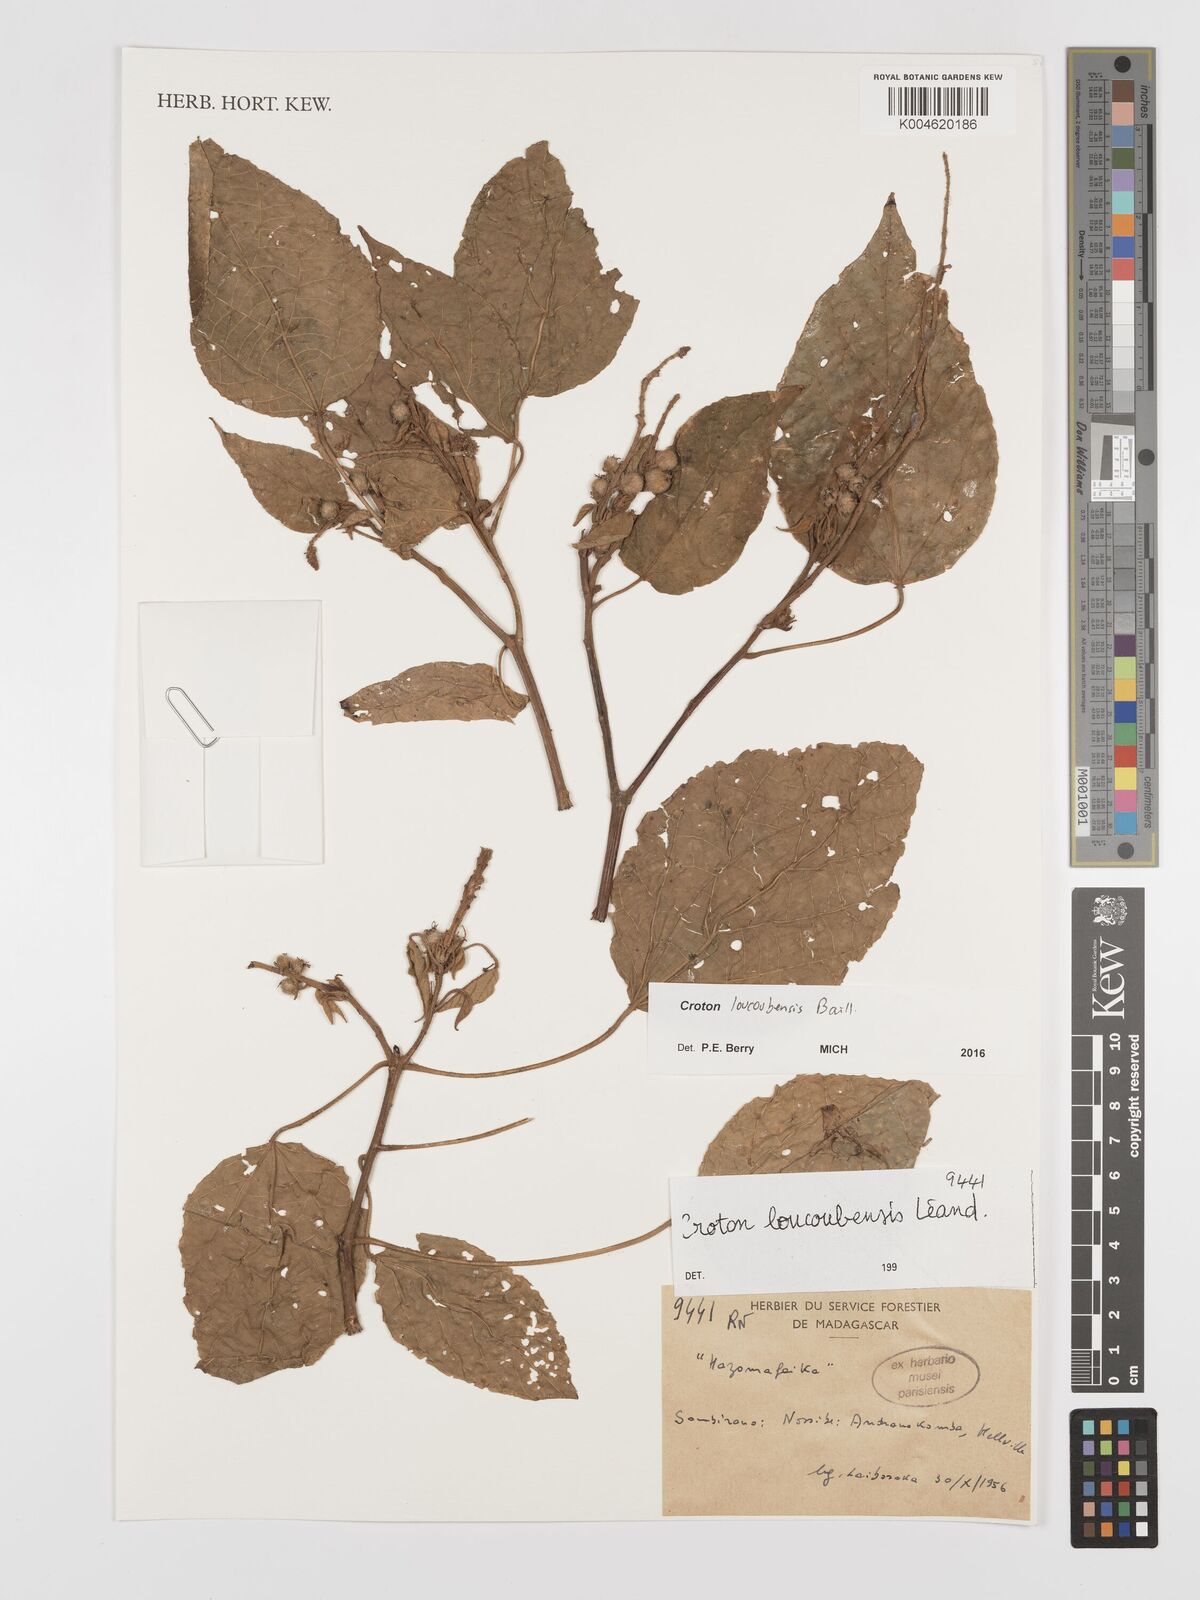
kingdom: Plantae
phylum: Tracheophyta
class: Magnoliopsida
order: Malpighiales
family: Euphorbiaceae
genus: Croton
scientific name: Croton loucoubensis
